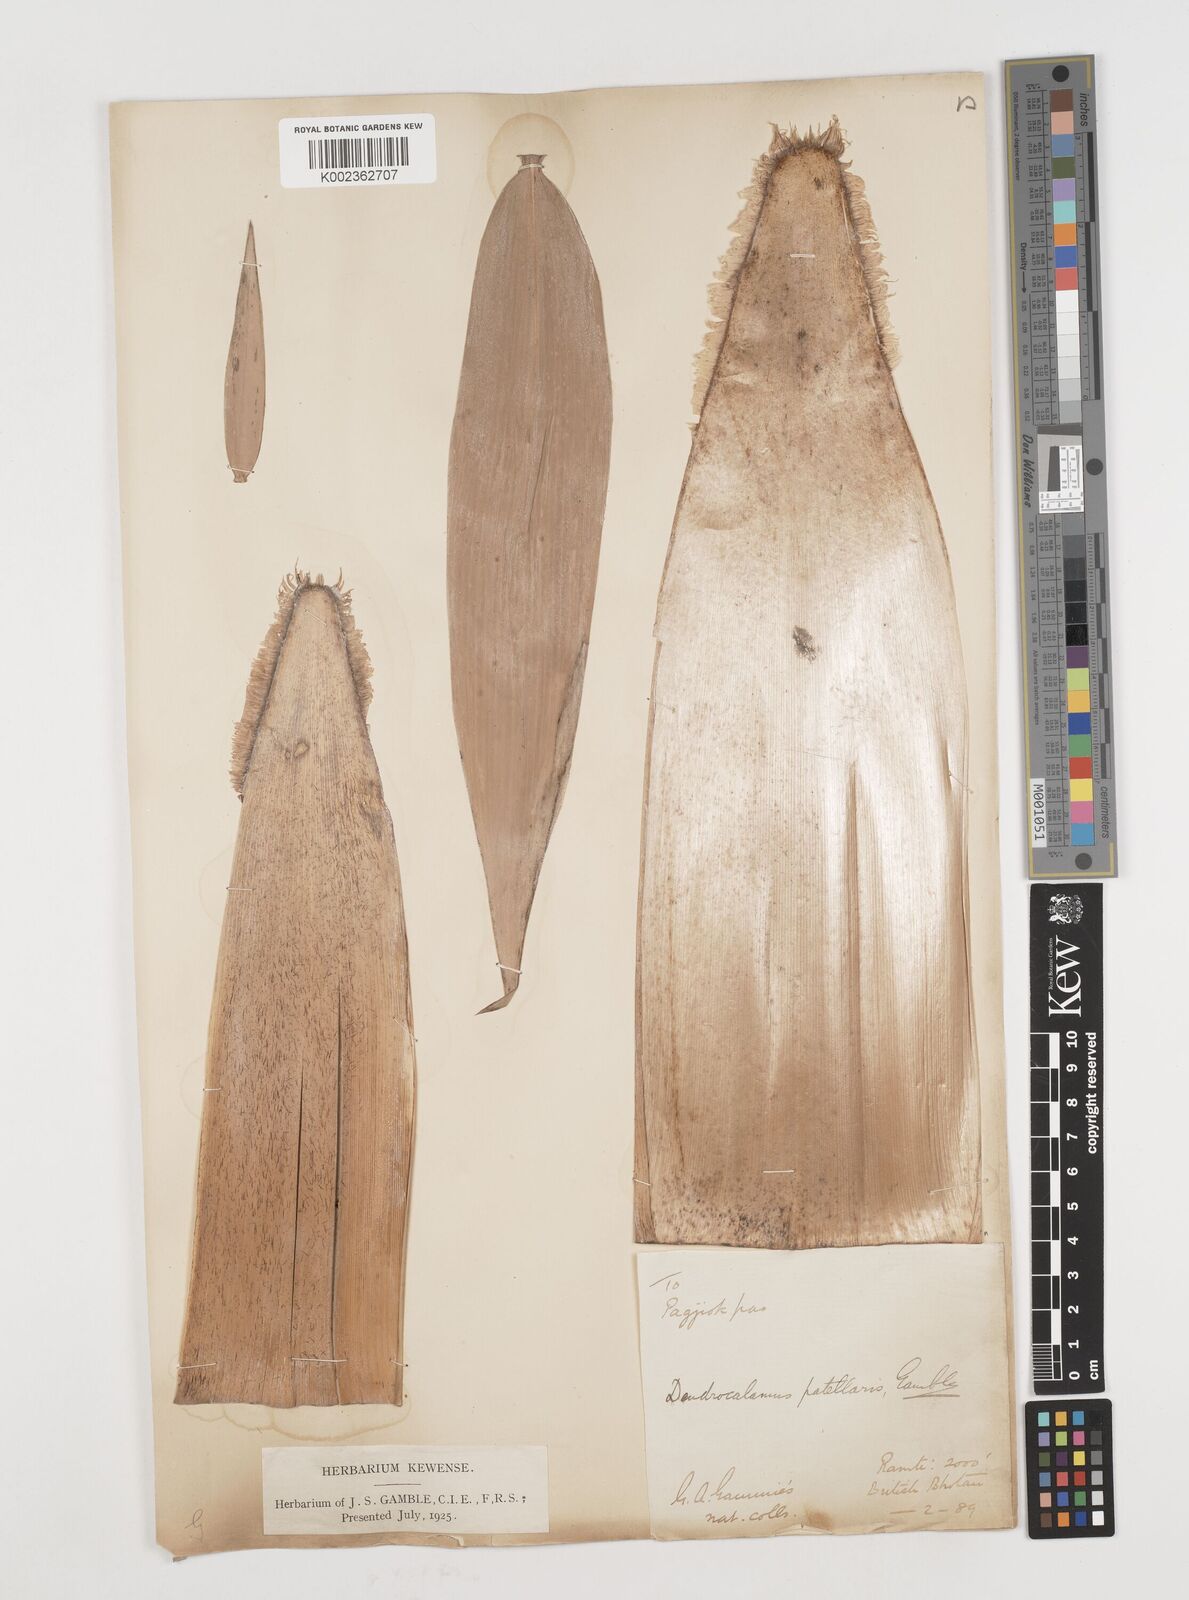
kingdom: Plantae
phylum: Tracheophyta
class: Liliopsida
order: Poales
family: Poaceae
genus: Ampelocalamus
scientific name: Ampelocalamus patellaris
